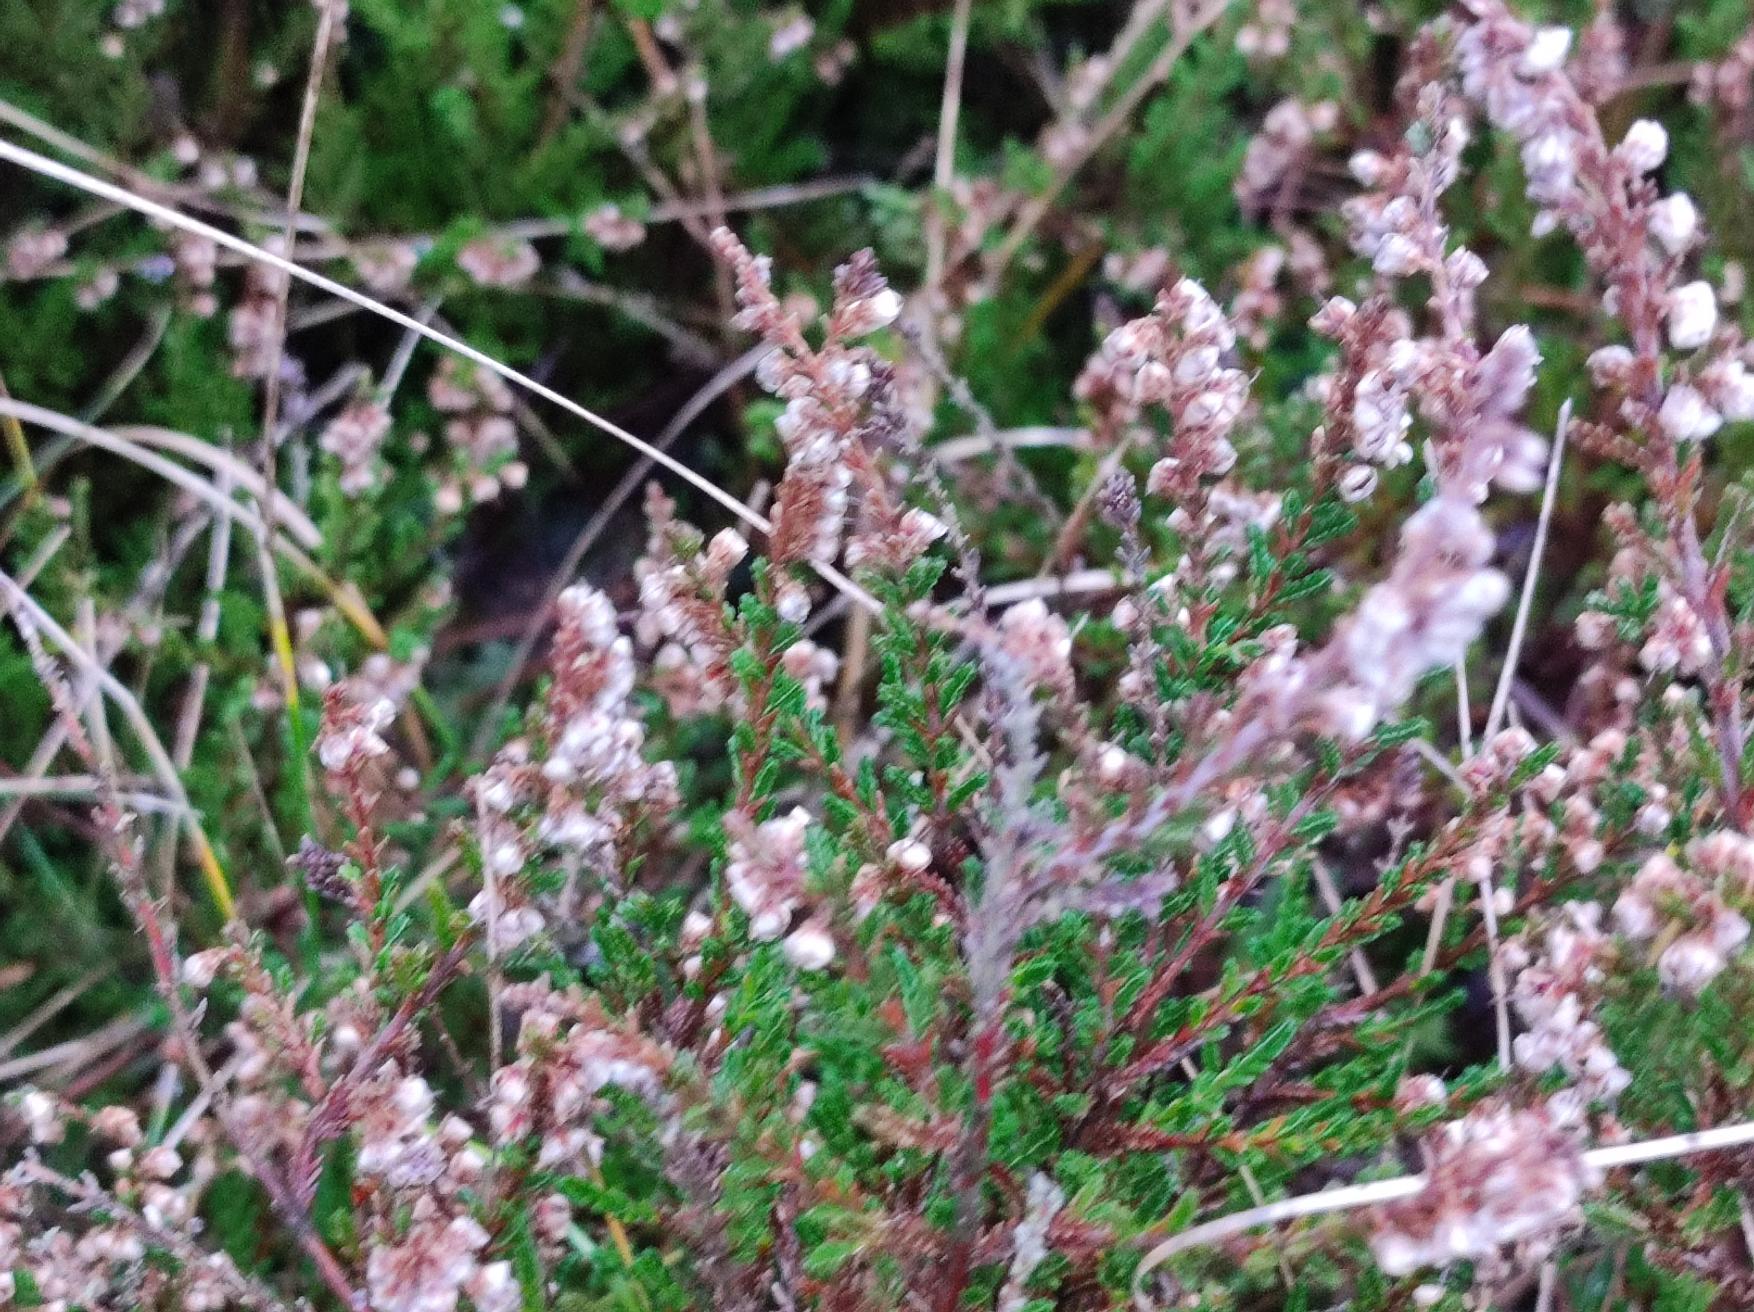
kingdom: Plantae
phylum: Tracheophyta
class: Magnoliopsida
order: Ericales
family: Ericaceae
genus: Calluna
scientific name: Calluna vulgaris
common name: Hedelyng
